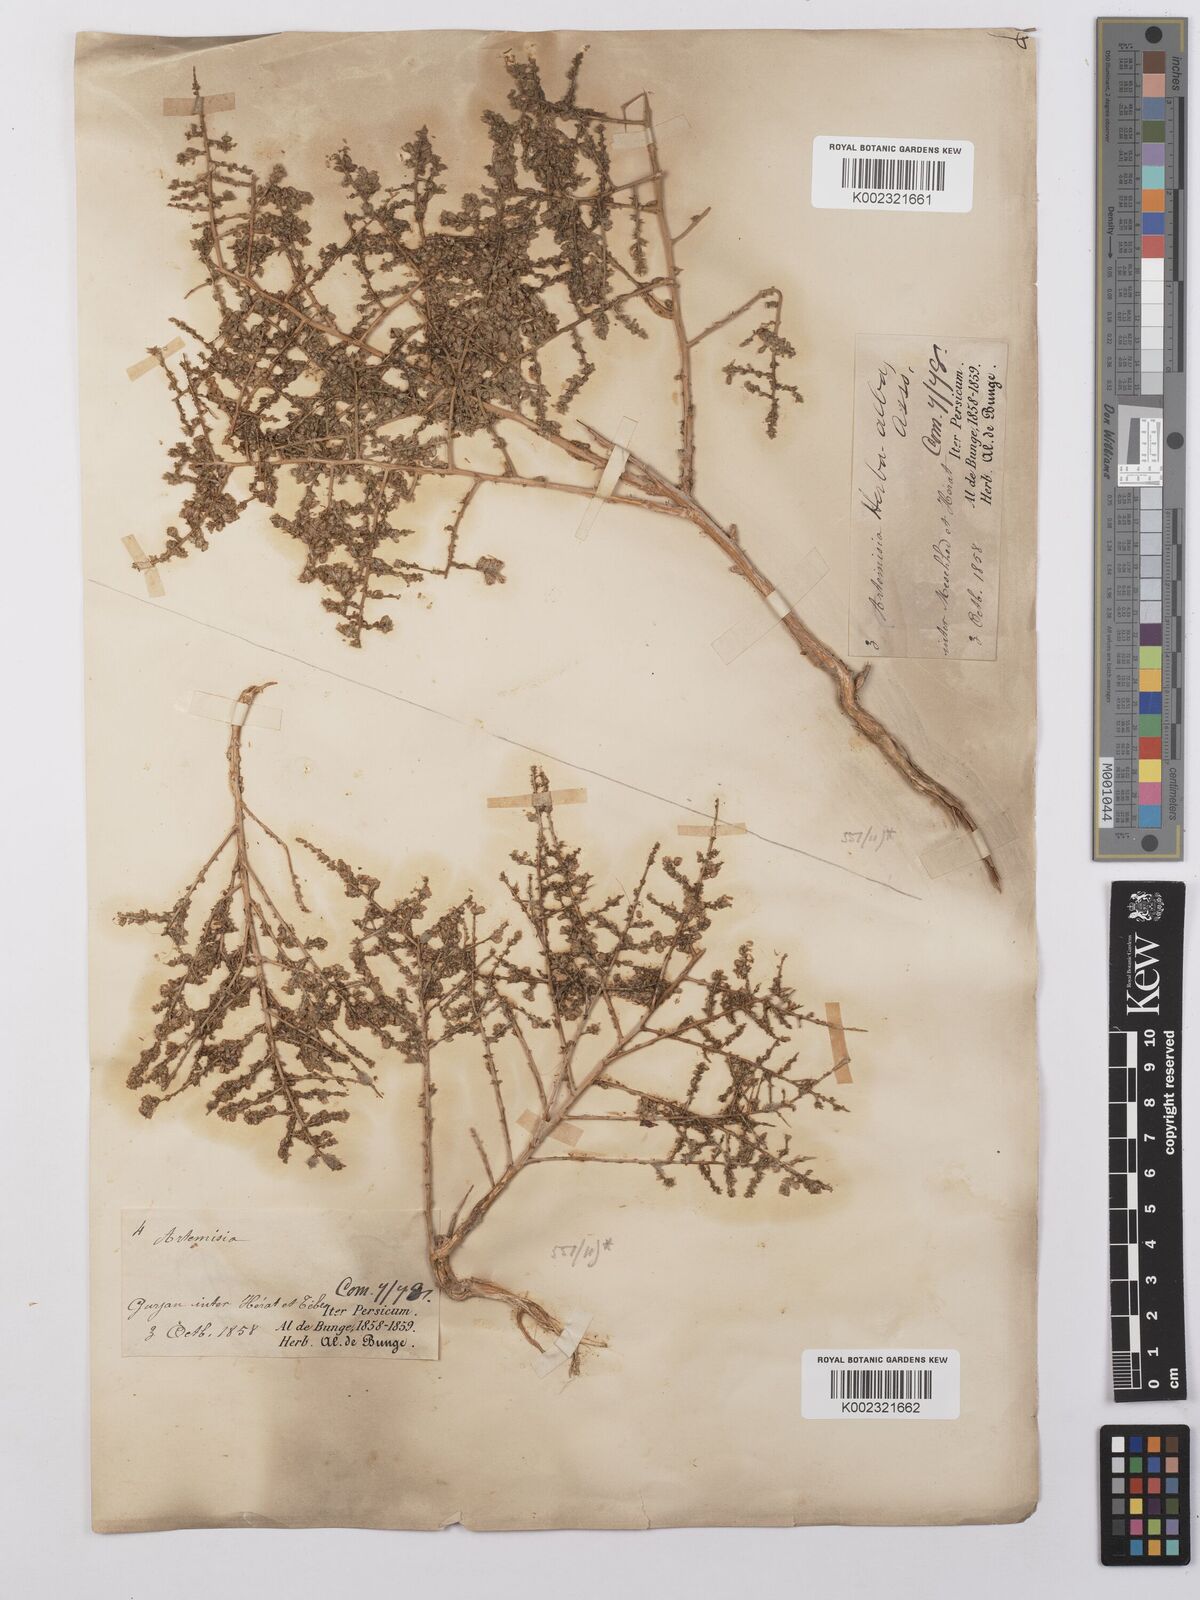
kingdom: Plantae
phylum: Tracheophyta
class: Magnoliopsida
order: Asterales
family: Asteraceae
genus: Artemisia
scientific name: Artemisia herba-alba
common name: White wormwood
